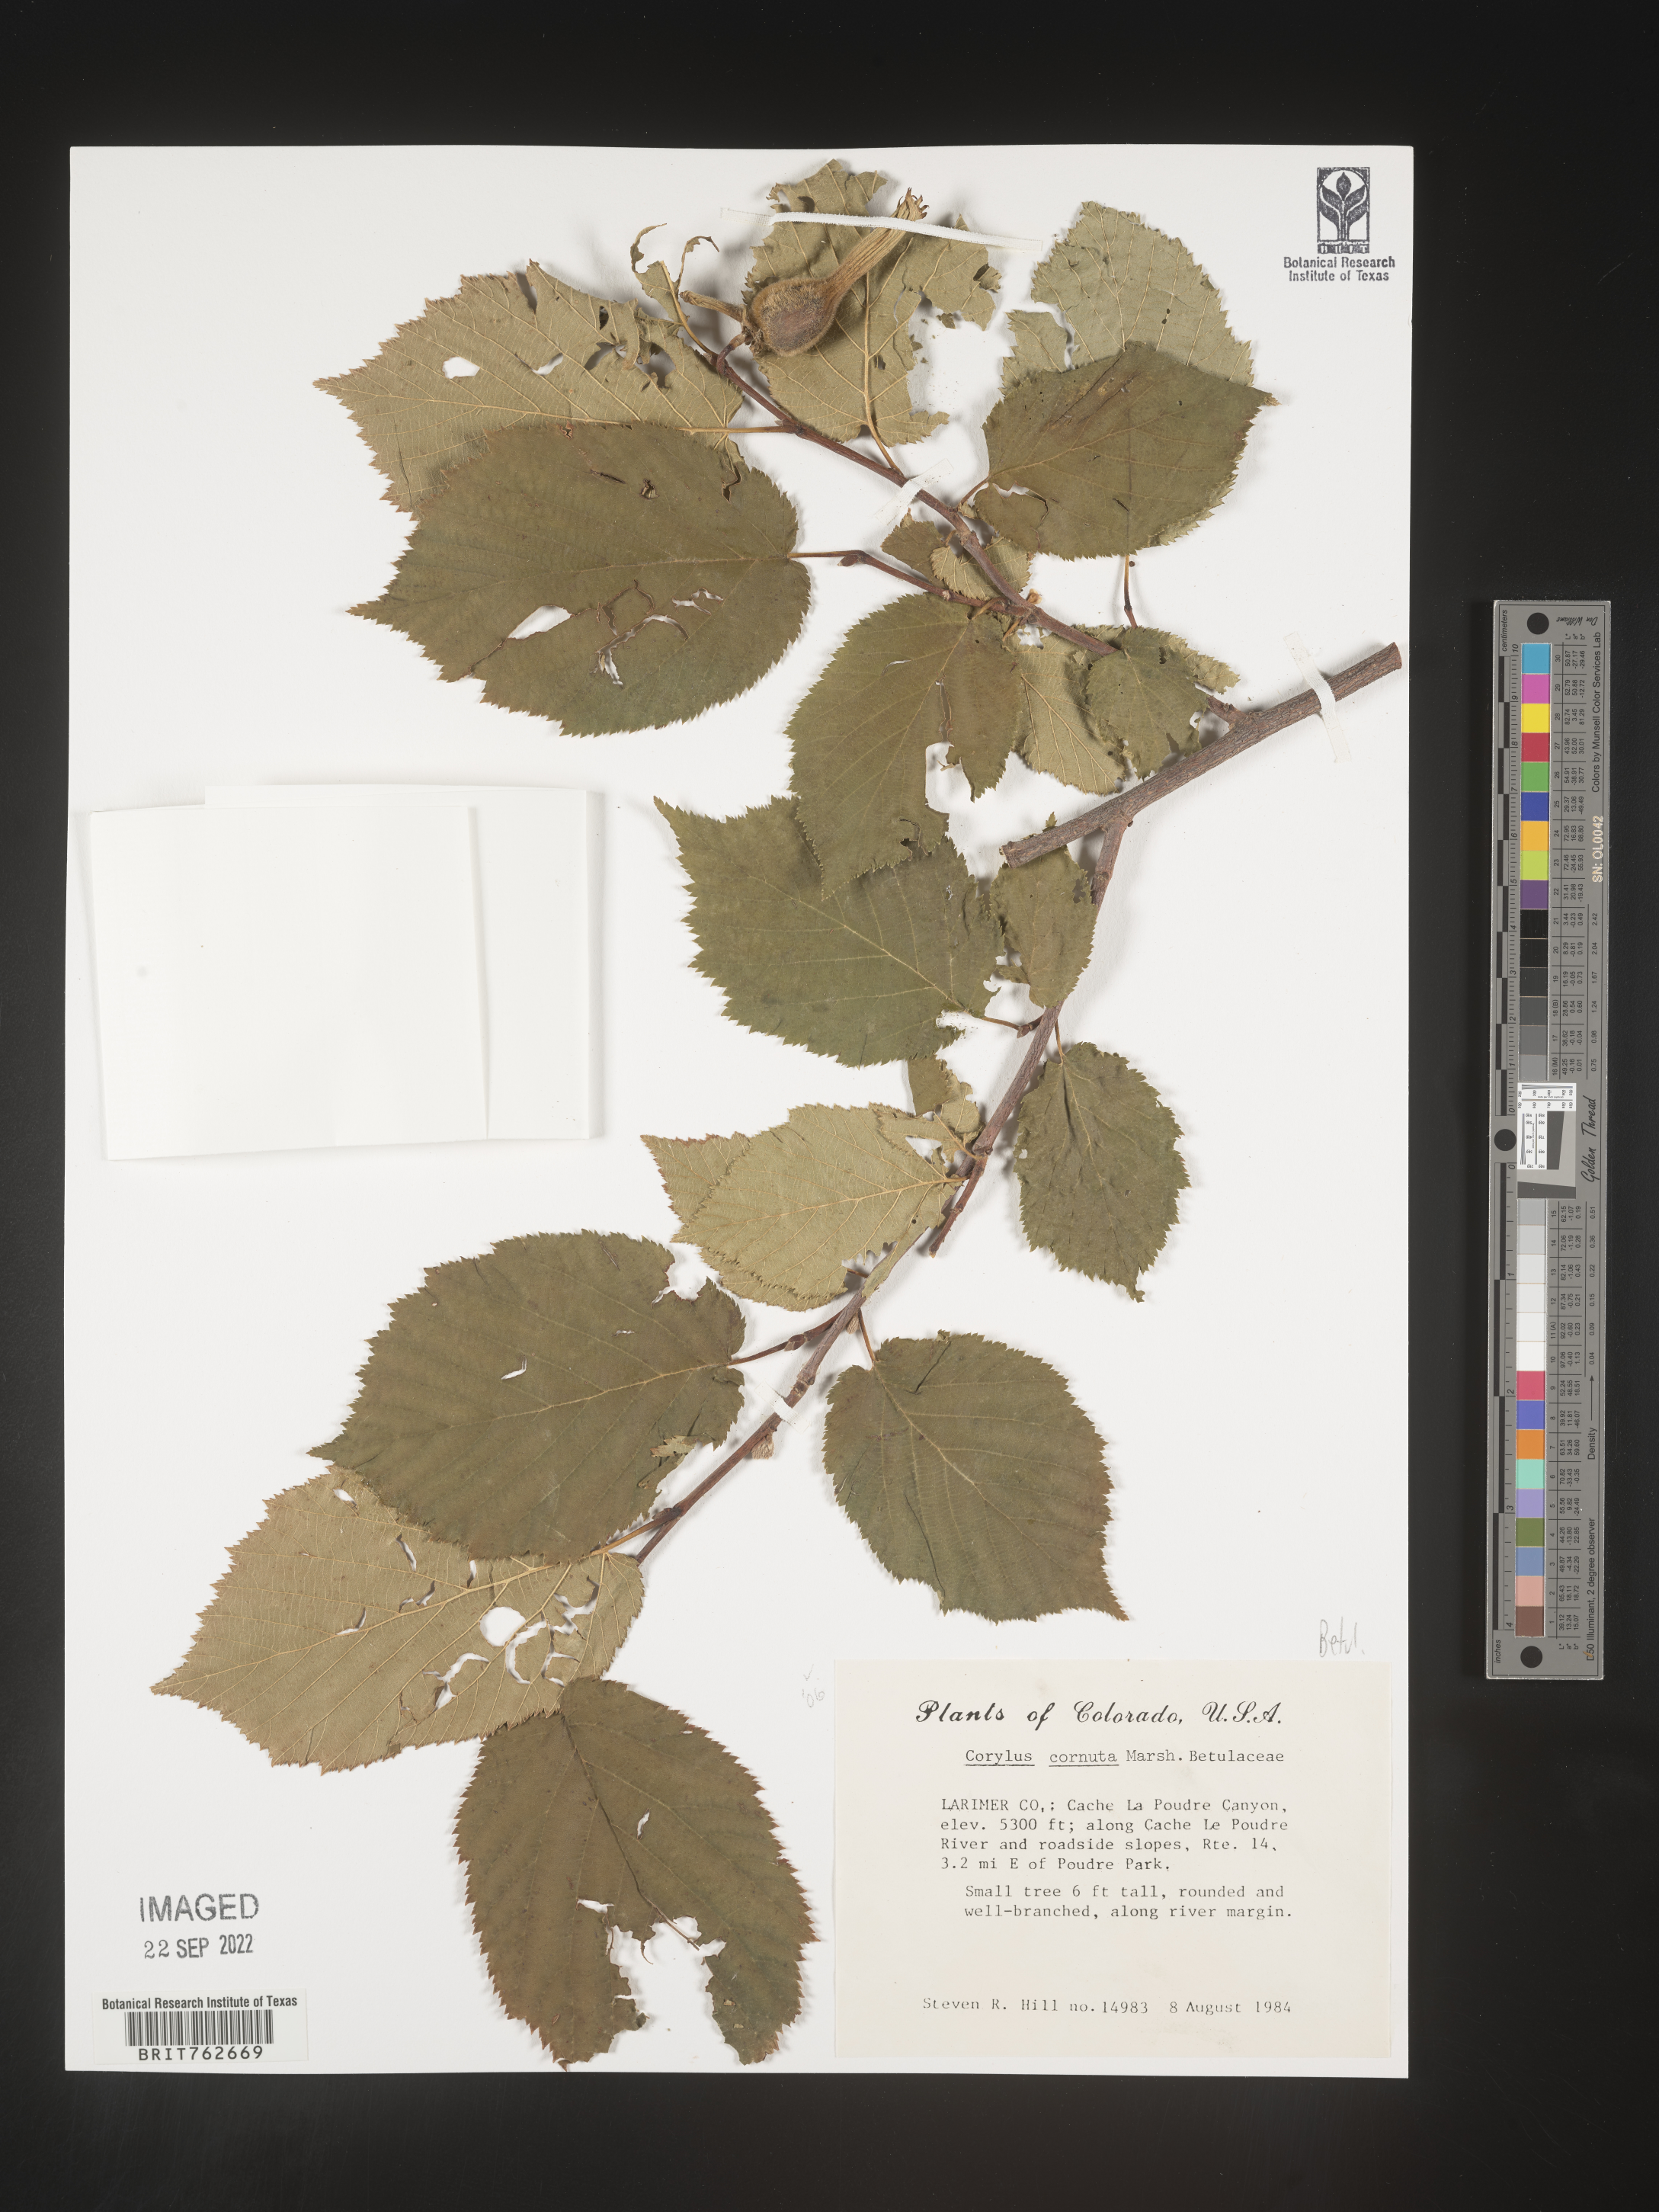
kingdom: Plantae
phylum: Tracheophyta
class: Magnoliopsida
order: Fagales
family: Betulaceae
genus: Corylus
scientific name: Corylus cornuta
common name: Beaked hazel
